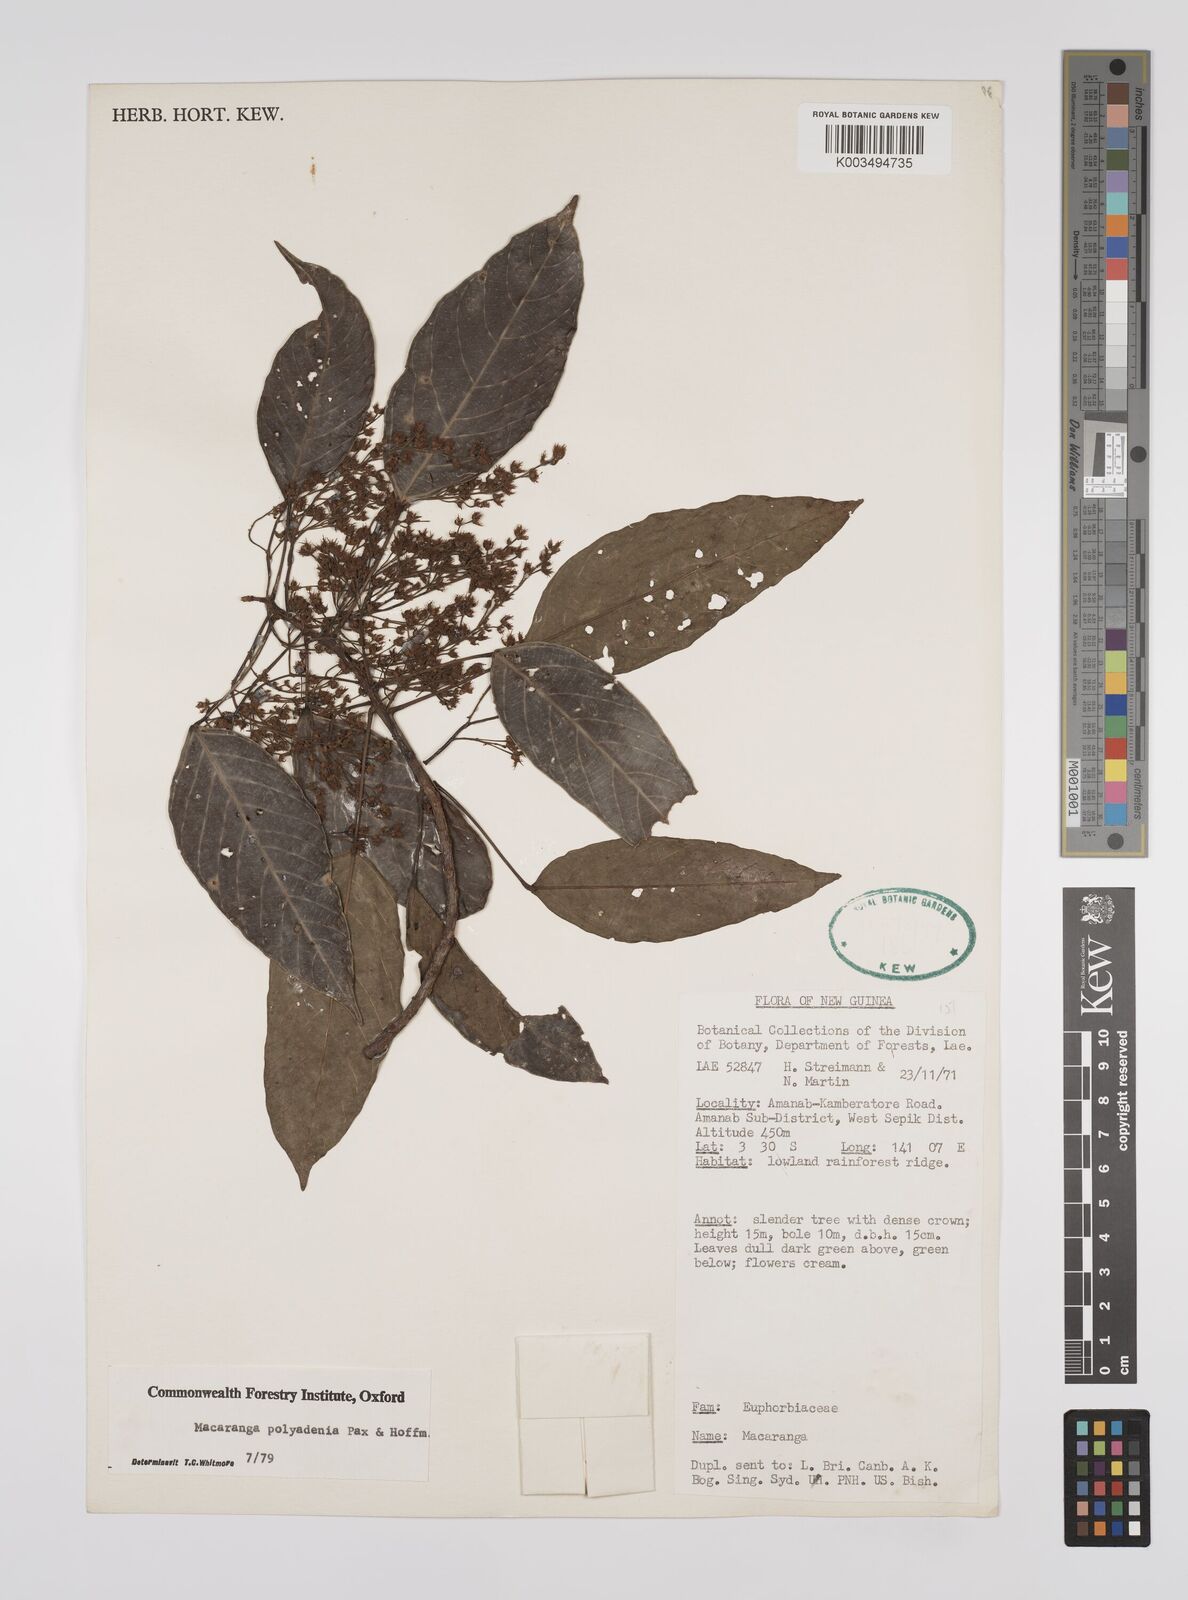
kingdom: Plantae
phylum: Tracheophyta
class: Magnoliopsida
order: Malpighiales
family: Euphorbiaceae
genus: Macaranga
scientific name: Macaranga polyadenia
